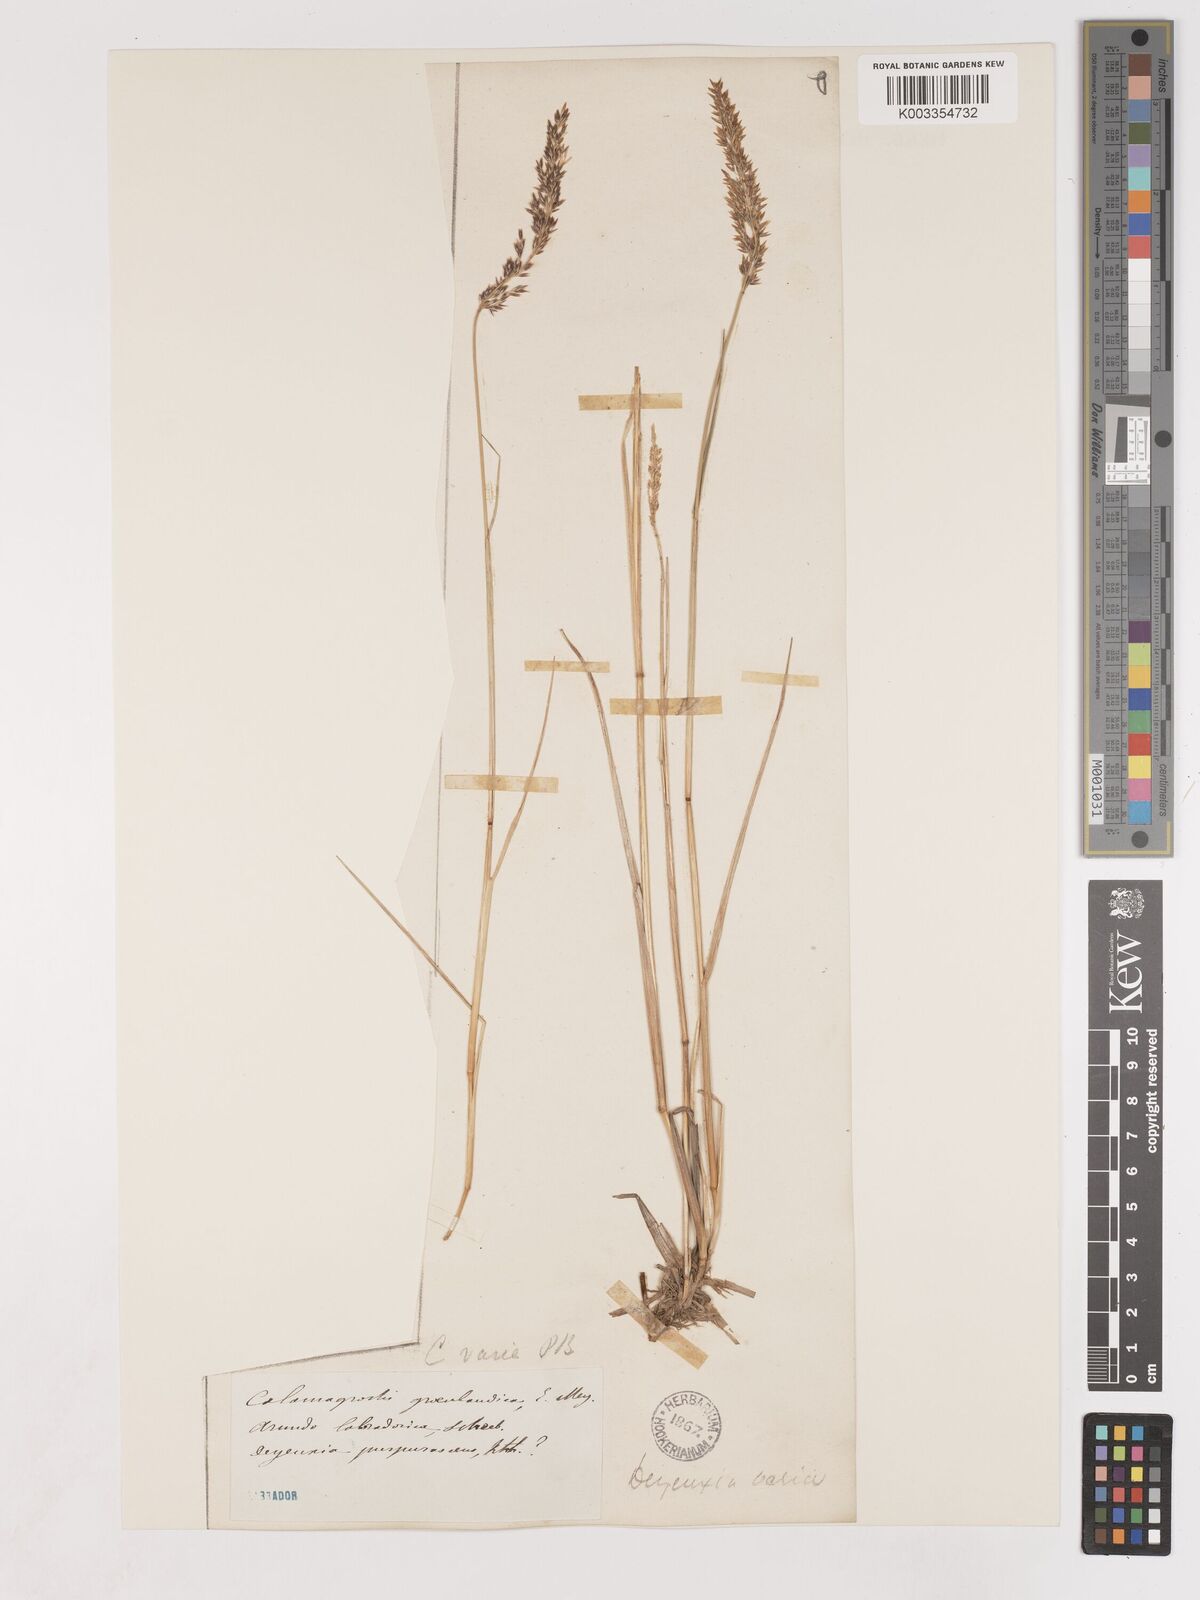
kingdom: Plantae
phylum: Tracheophyta
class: Liliopsida
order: Poales
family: Poaceae
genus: Cinnagrostis
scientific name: Cinnagrostis recta
